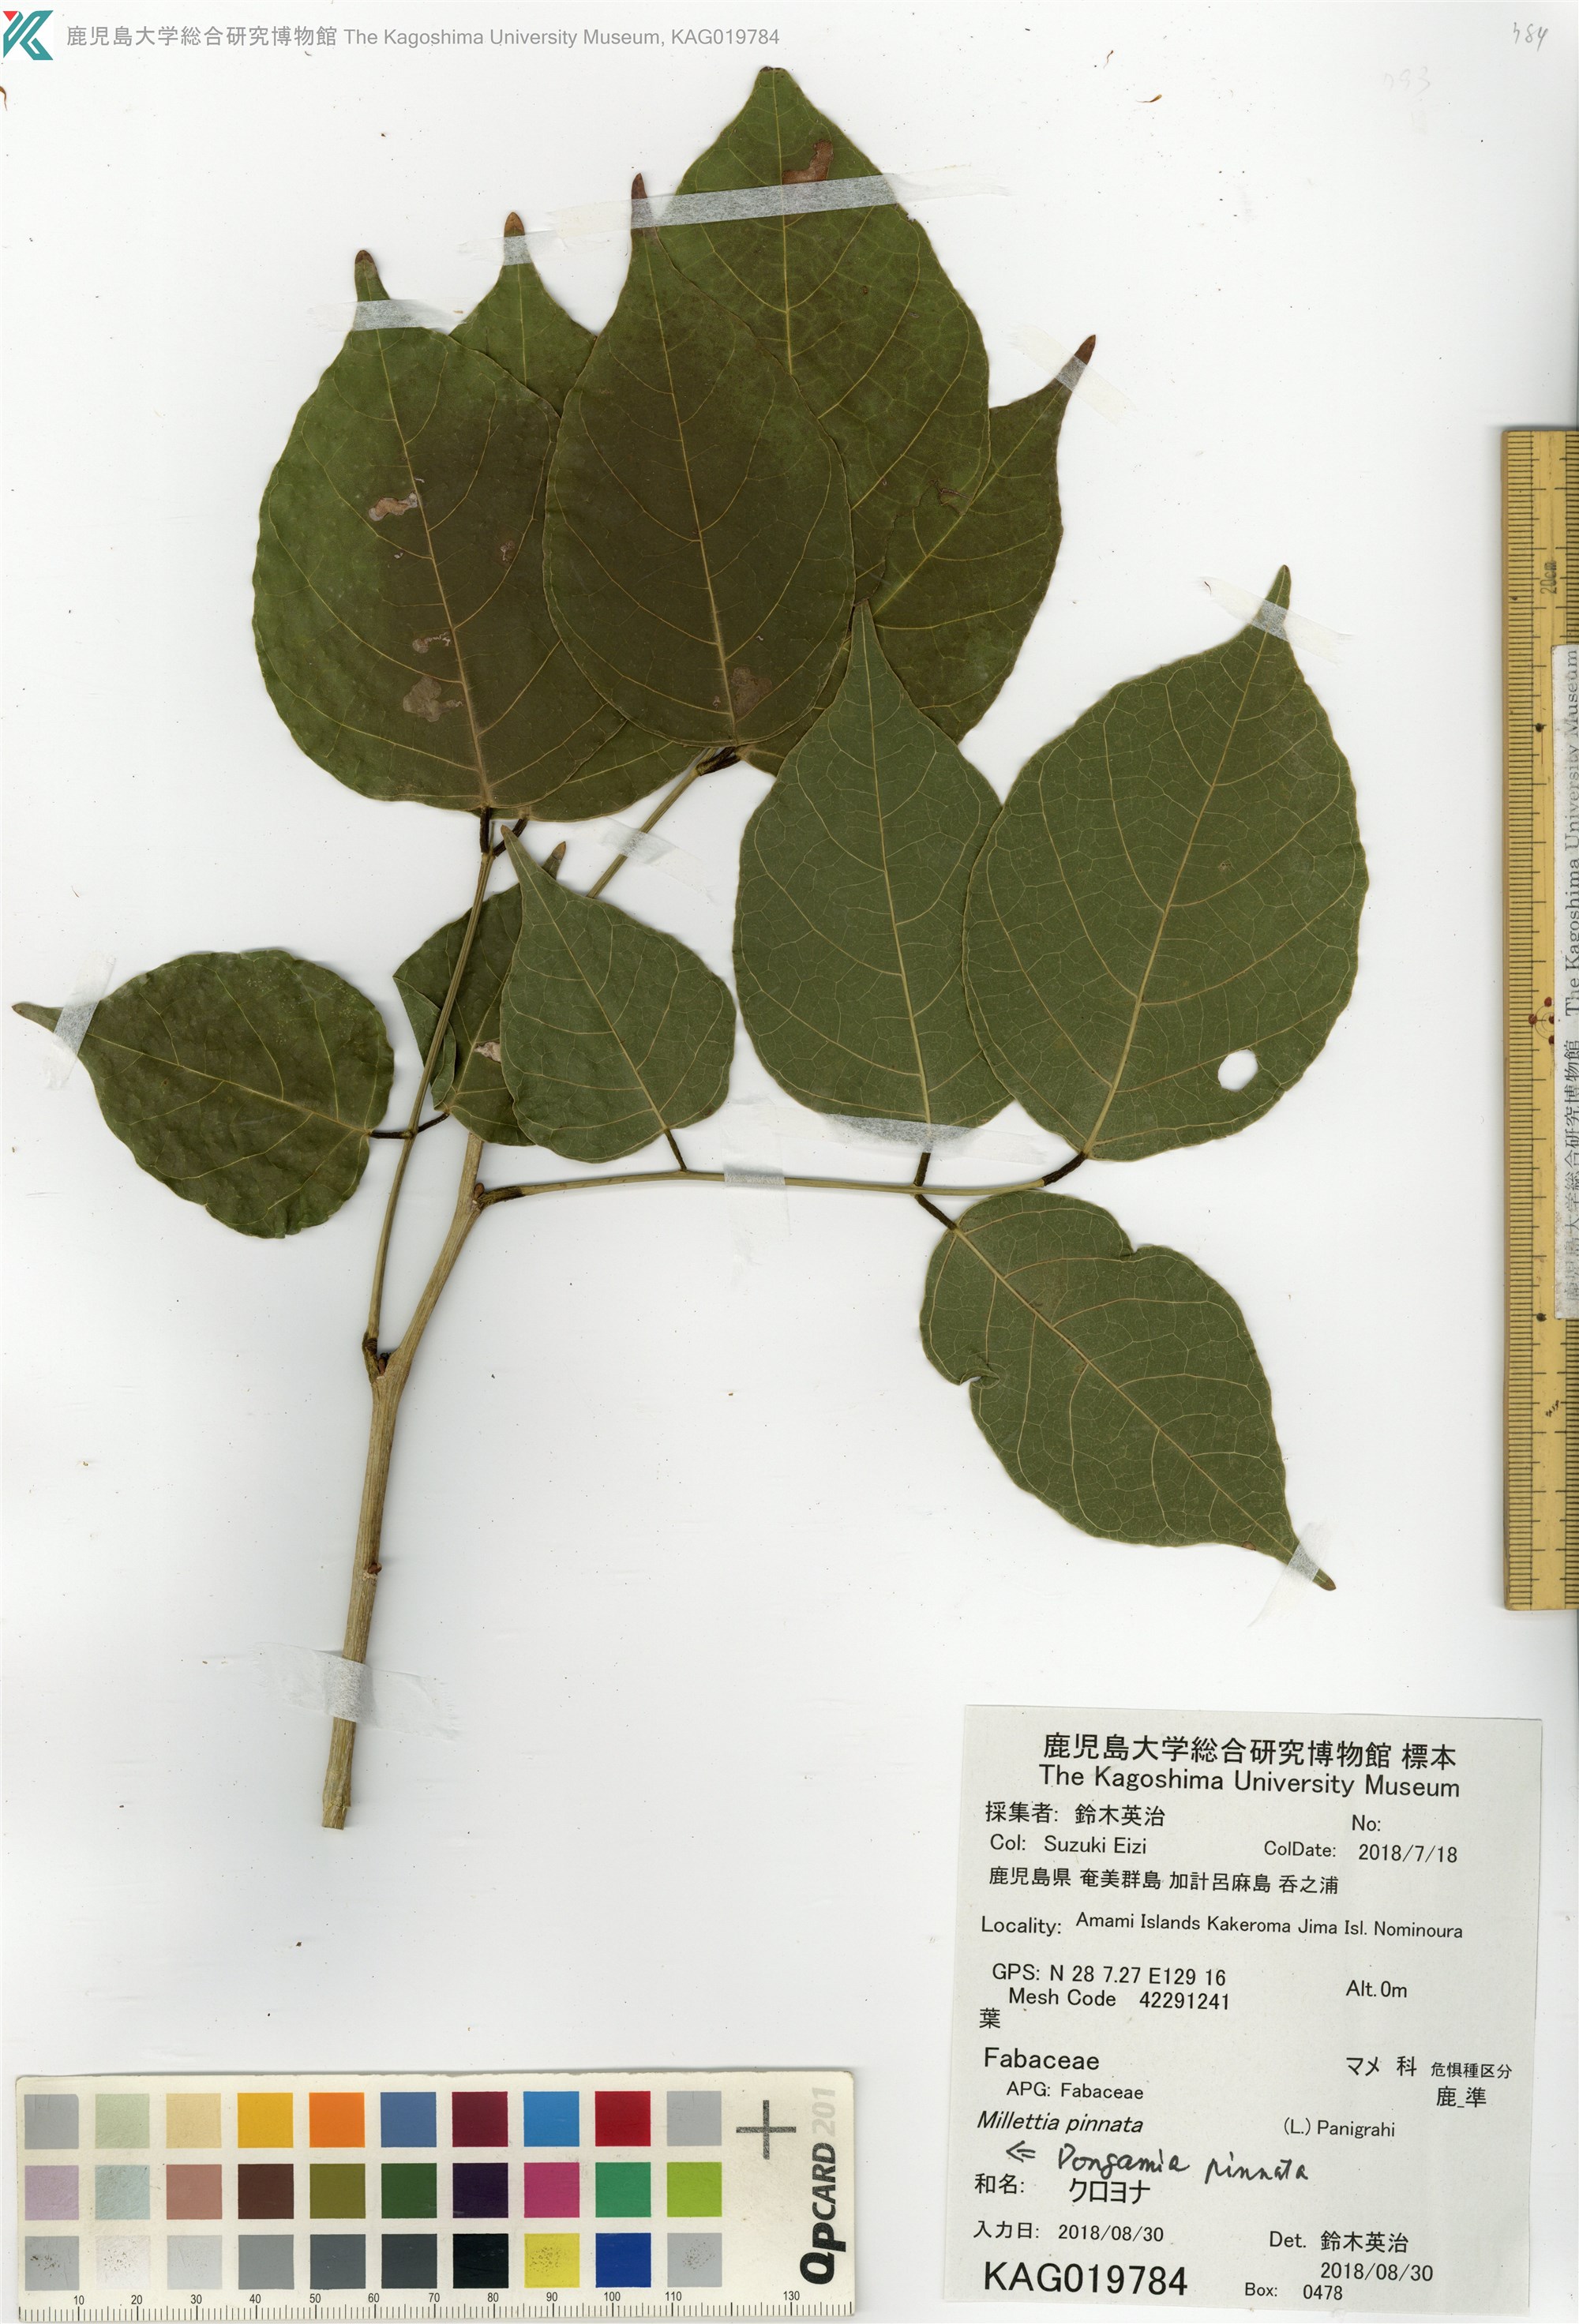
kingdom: Plantae
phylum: Tracheophyta
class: Magnoliopsida
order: Fabales
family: Fabaceae
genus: Pongamia
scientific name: Pongamia pinnata
